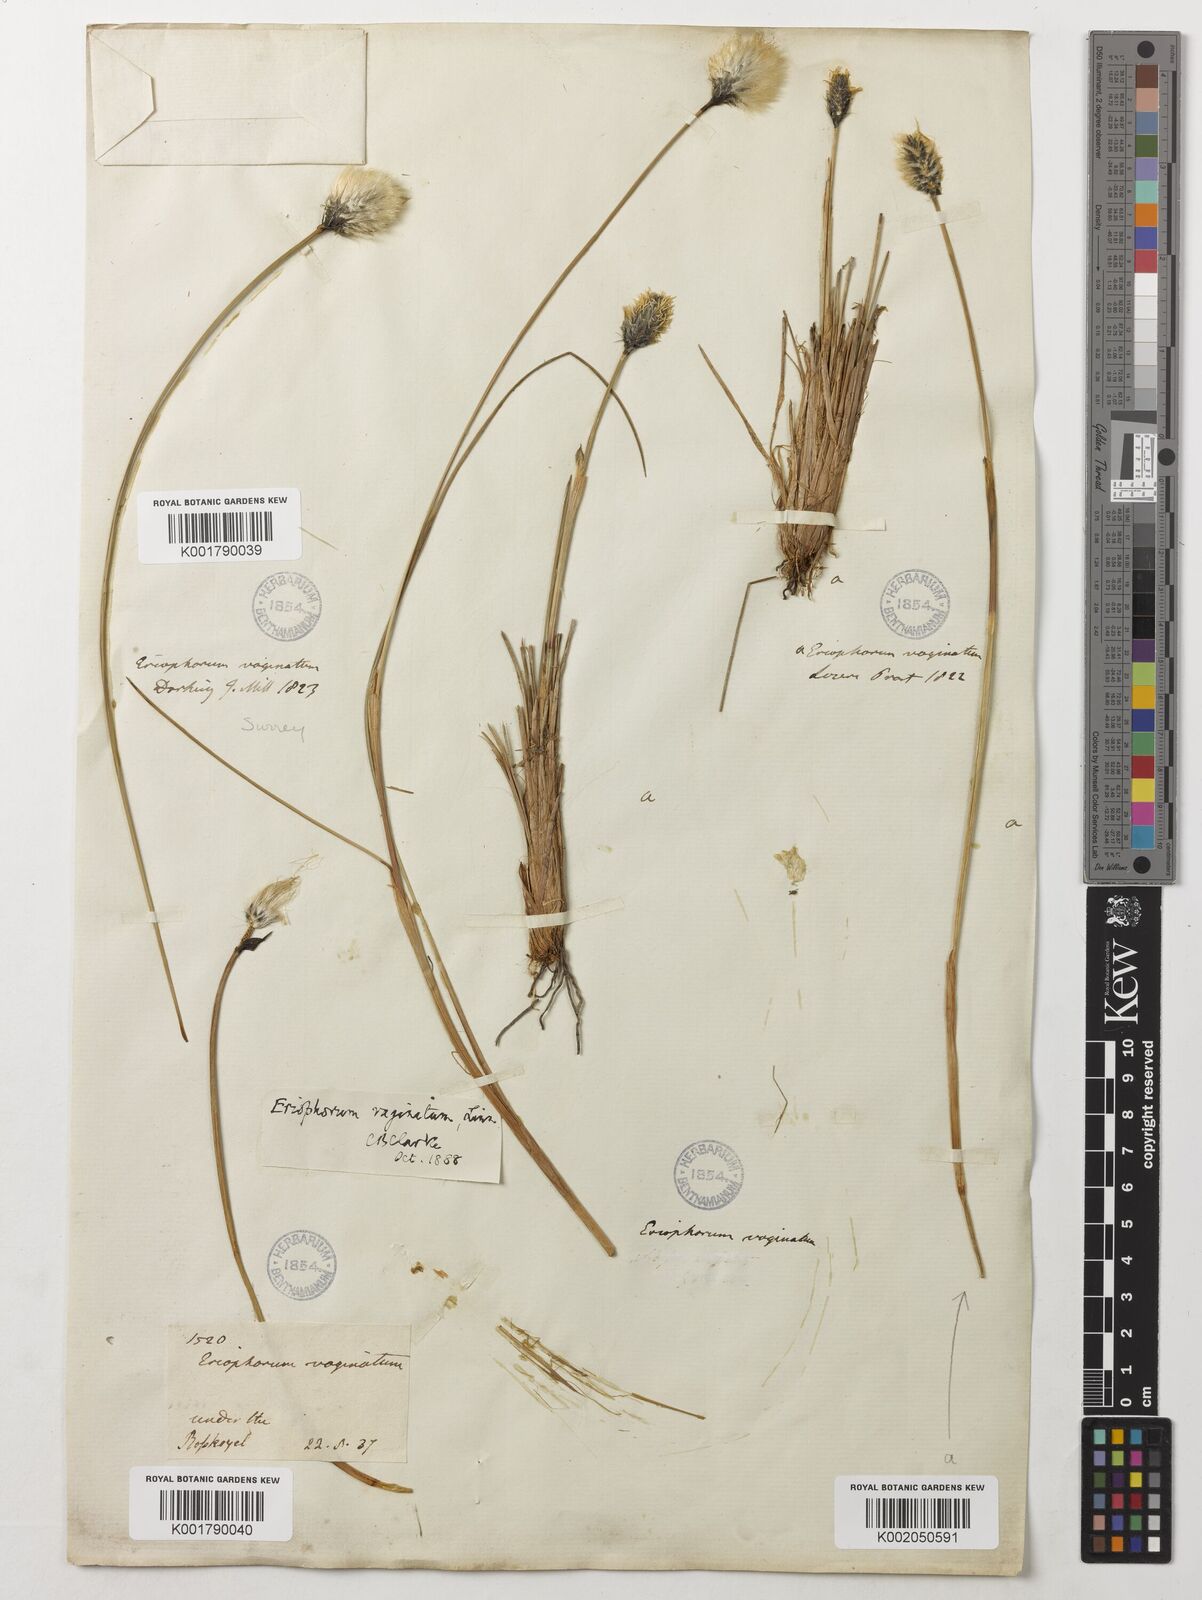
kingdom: Plantae
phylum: Tracheophyta
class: Liliopsida
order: Poales
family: Cyperaceae
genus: Eriophorum
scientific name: Eriophorum vaginatum
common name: Hare's-tail cottongrass
